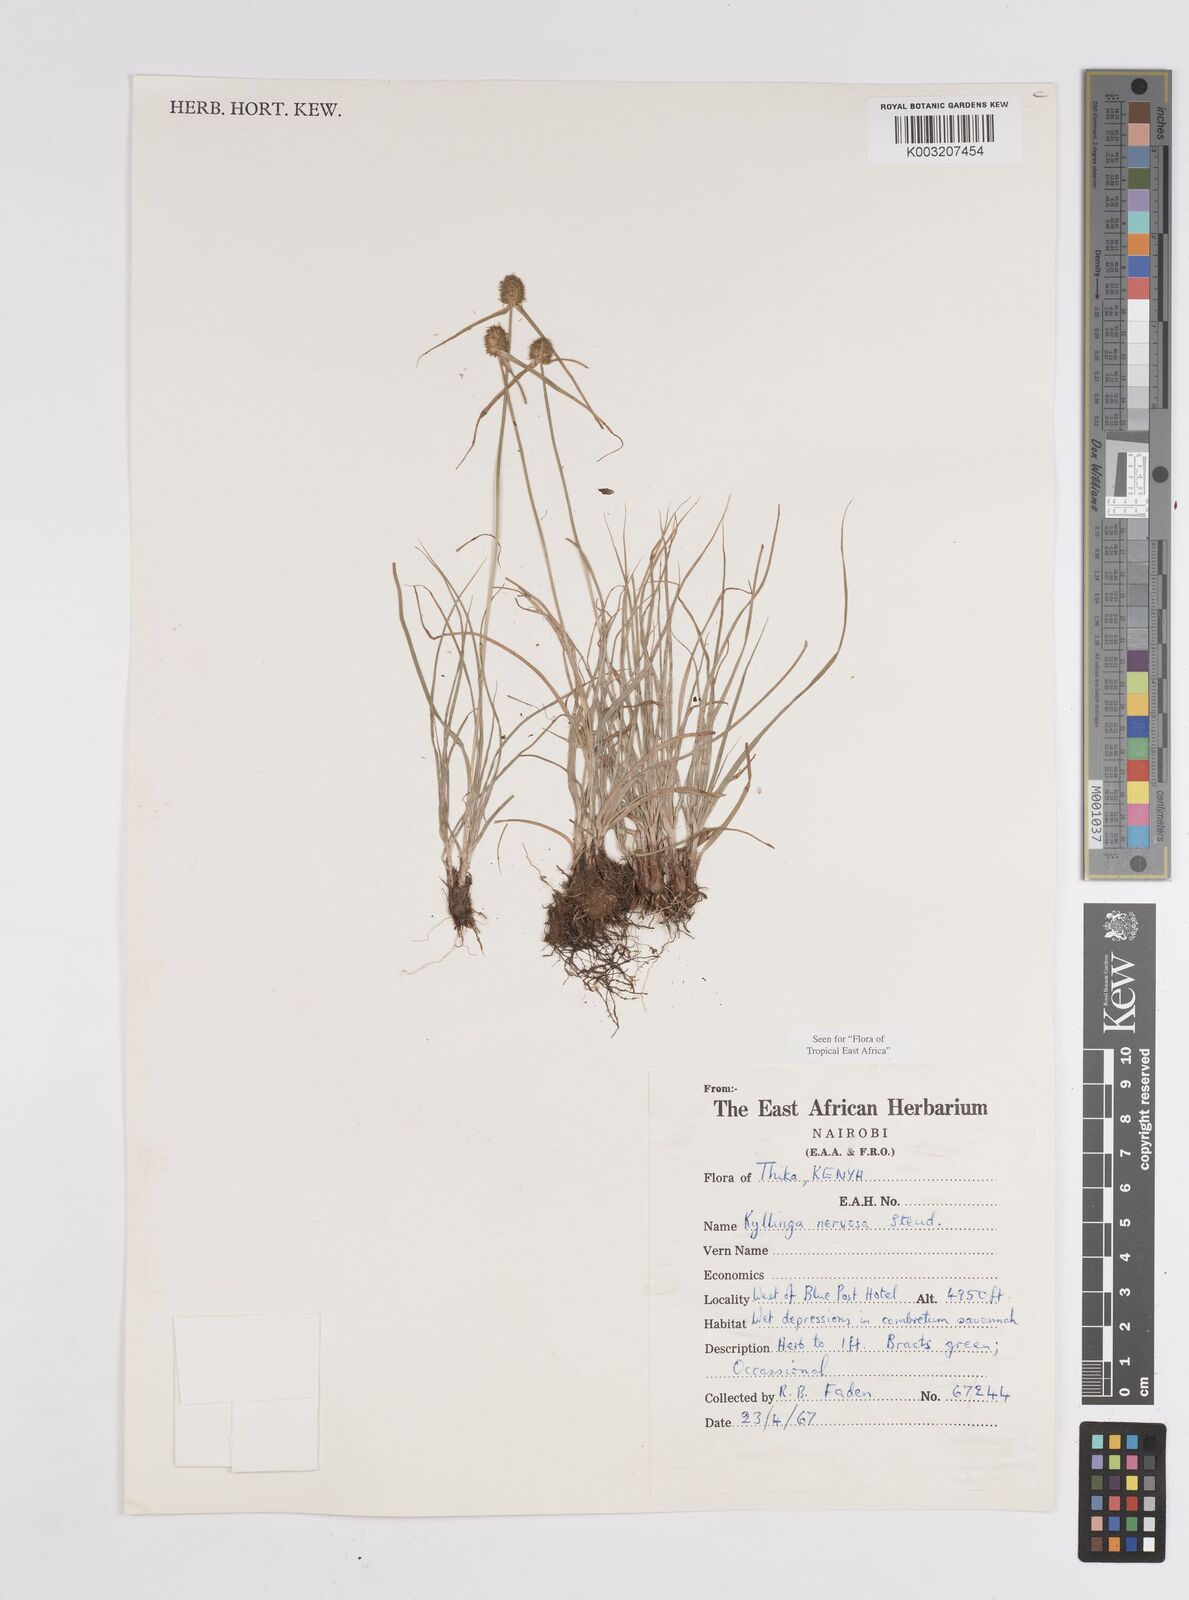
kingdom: Plantae
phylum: Tracheophyta
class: Liliopsida
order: Poales
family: Cyperaceae
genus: Cyperus
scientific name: Cyperus
